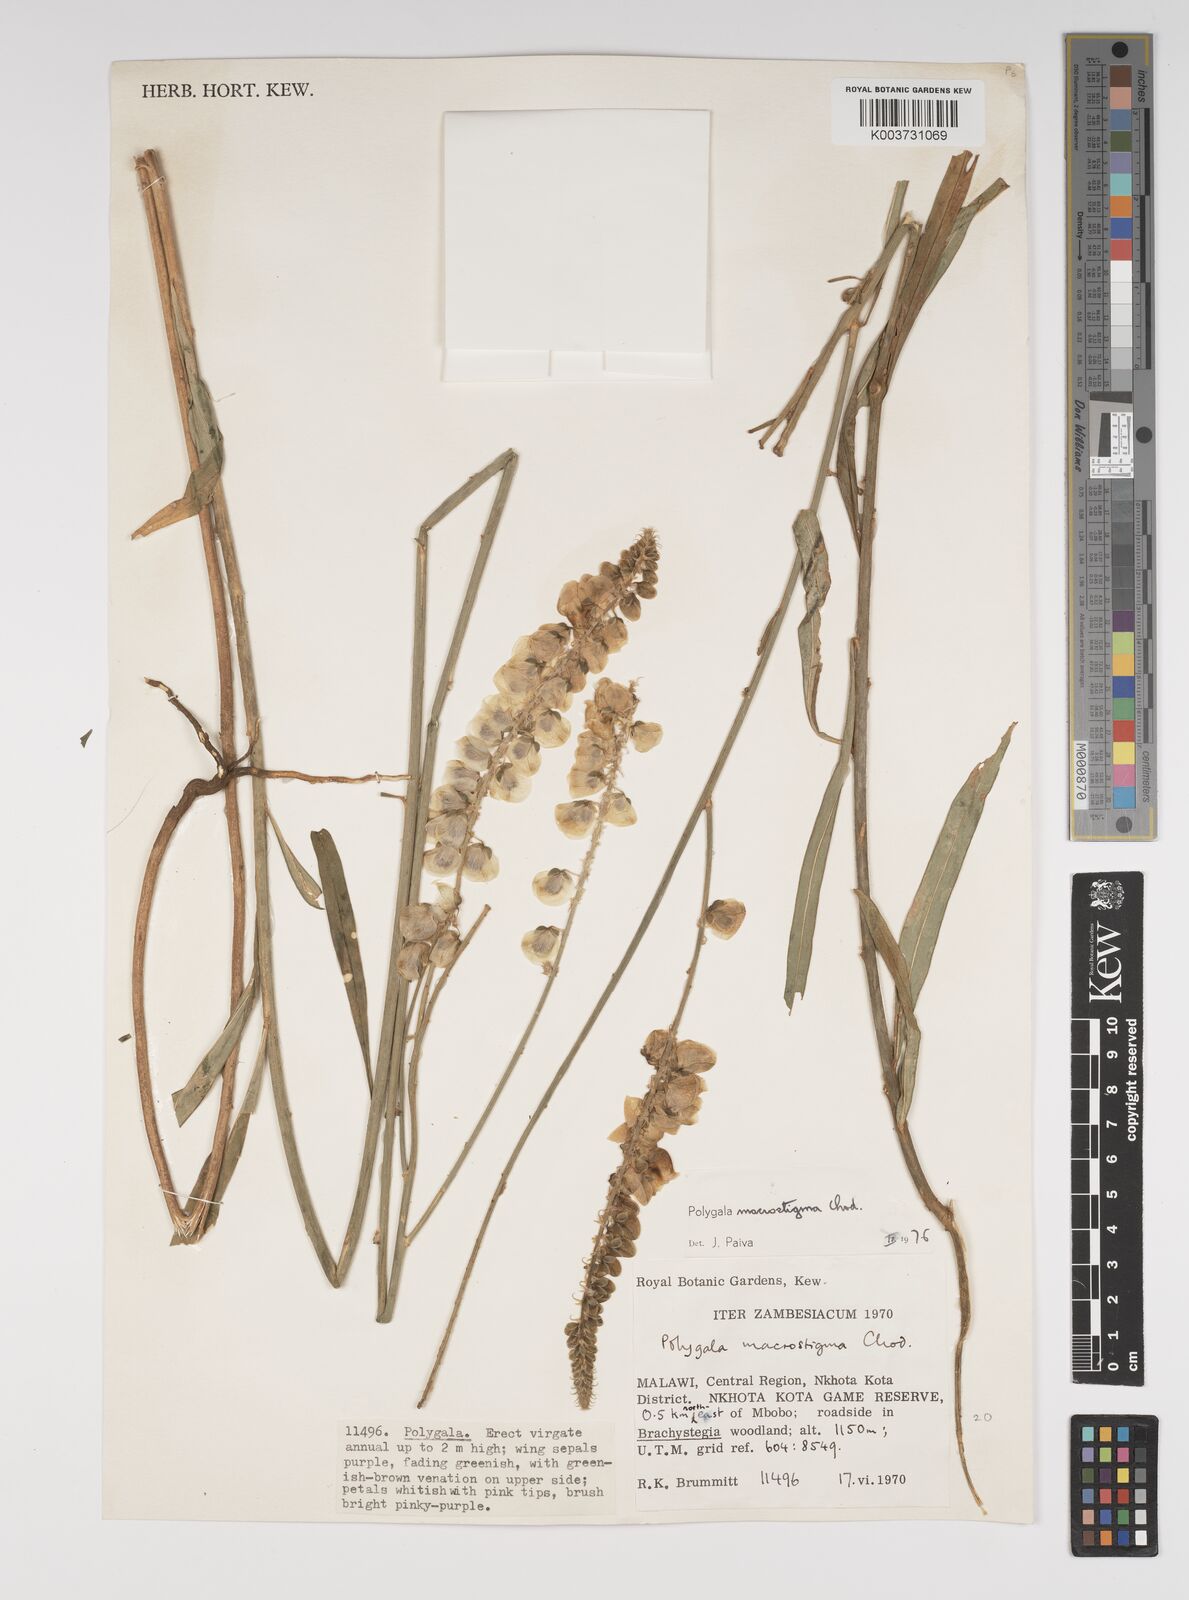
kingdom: Plantae
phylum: Tracheophyta
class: Magnoliopsida
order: Fabales
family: Polygalaceae
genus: Polygala
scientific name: Polygala macrostigma
